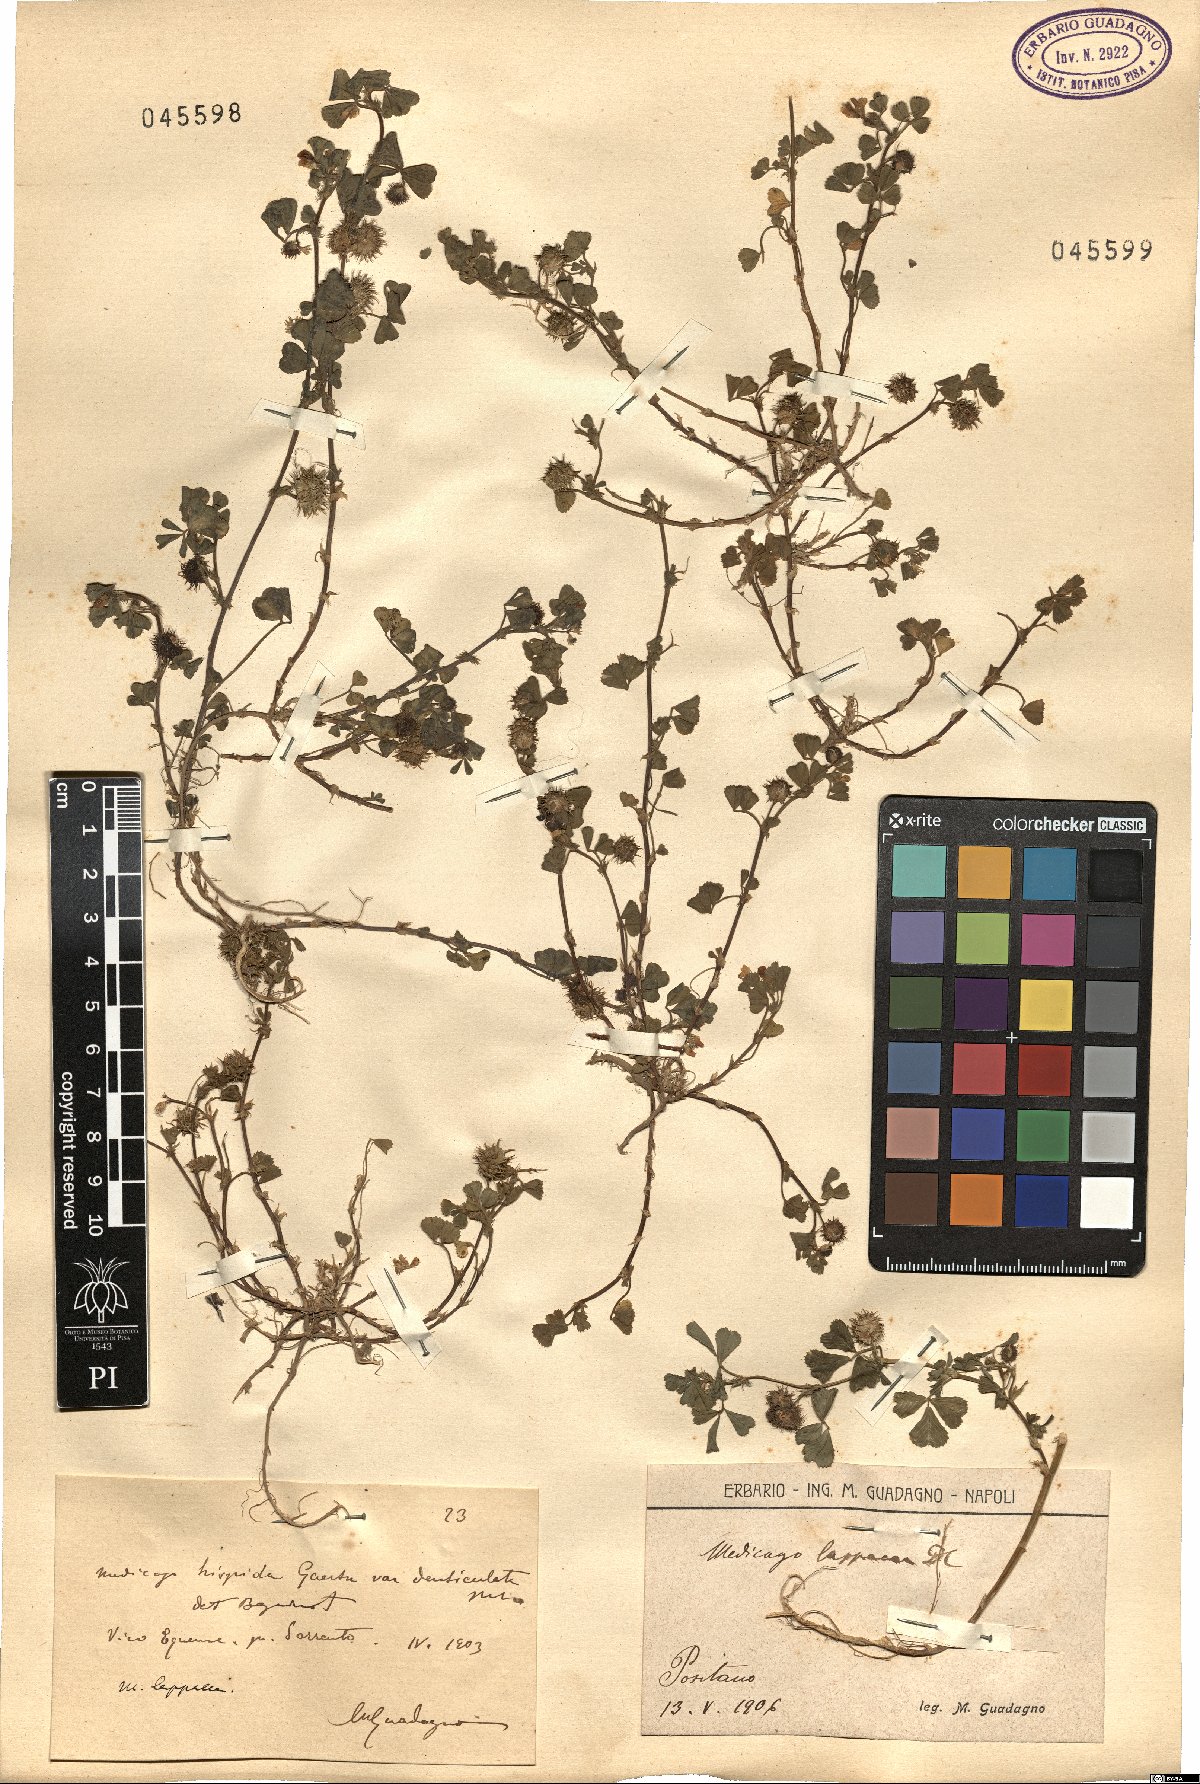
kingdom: Plantae
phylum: Tracheophyta
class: Magnoliopsida
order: Fabales
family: Fabaceae
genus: Medicago
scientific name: Medicago polymorpha
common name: Burclover
